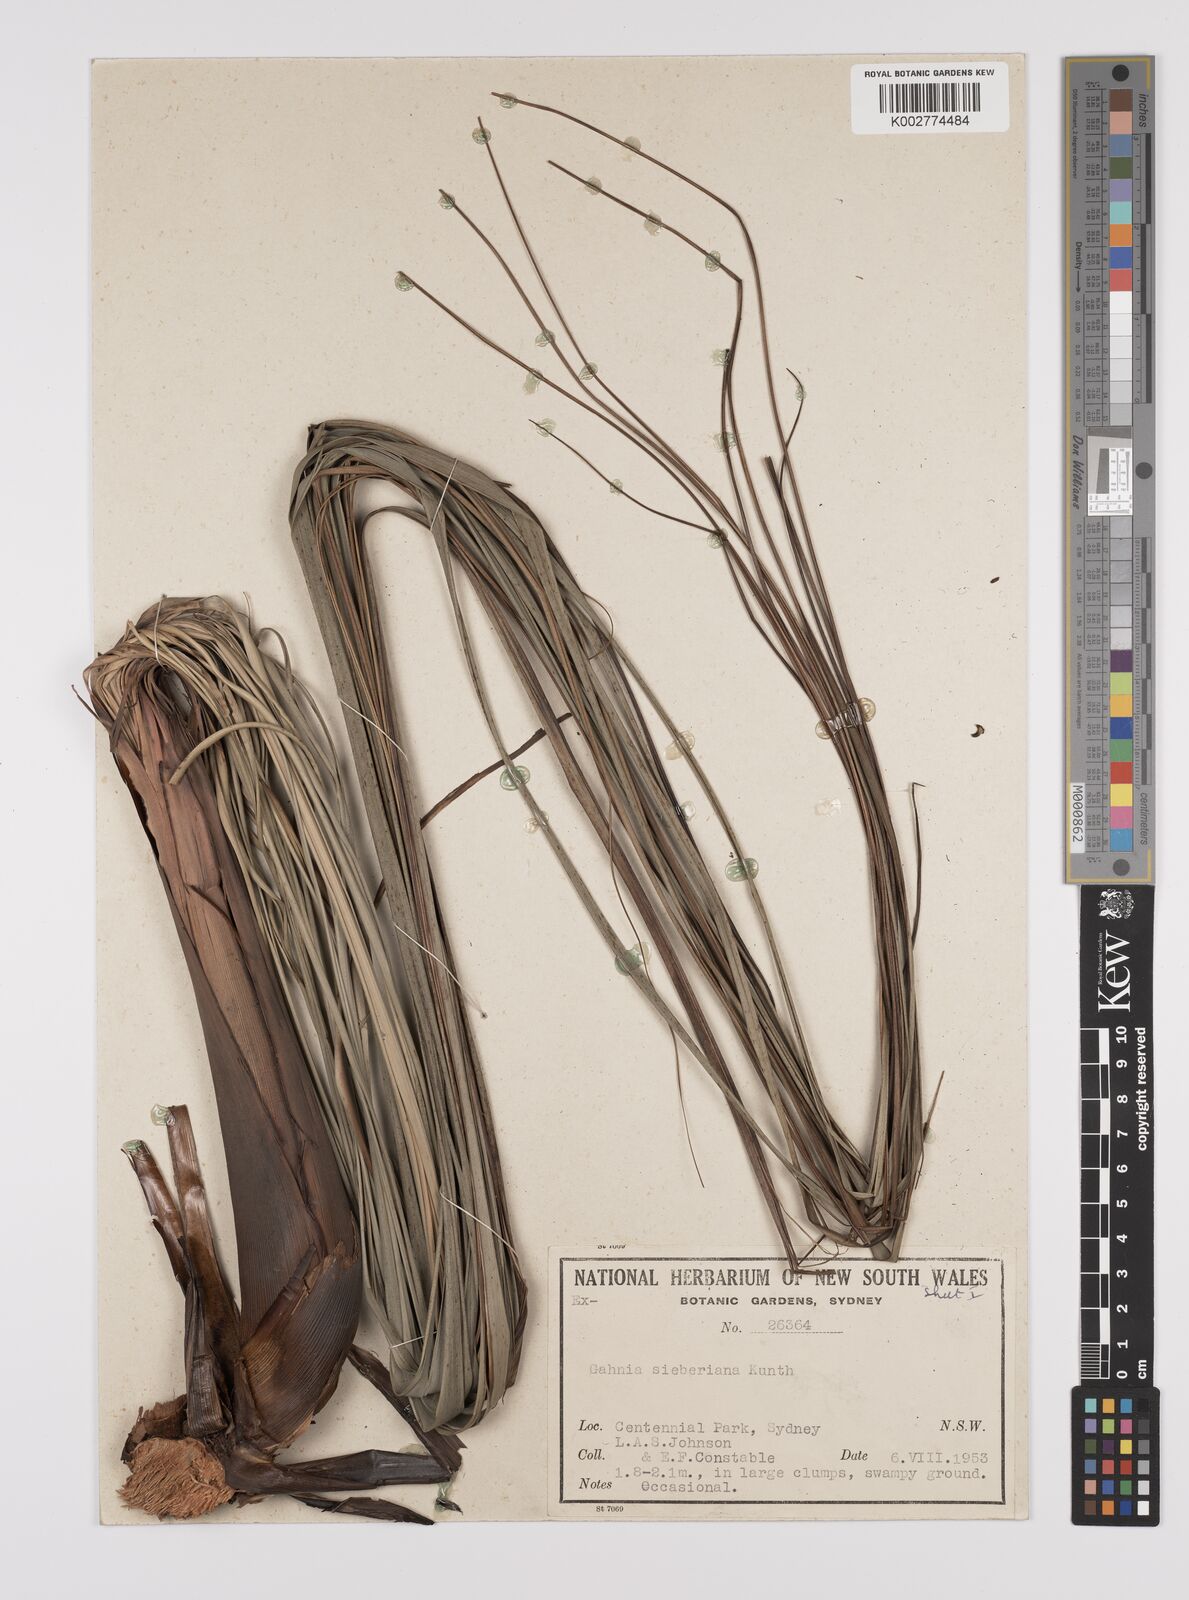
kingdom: Plantae
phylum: Tracheophyta
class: Liliopsida
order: Poales
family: Cyperaceae
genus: Gahnia
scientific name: Gahnia sieberiana
